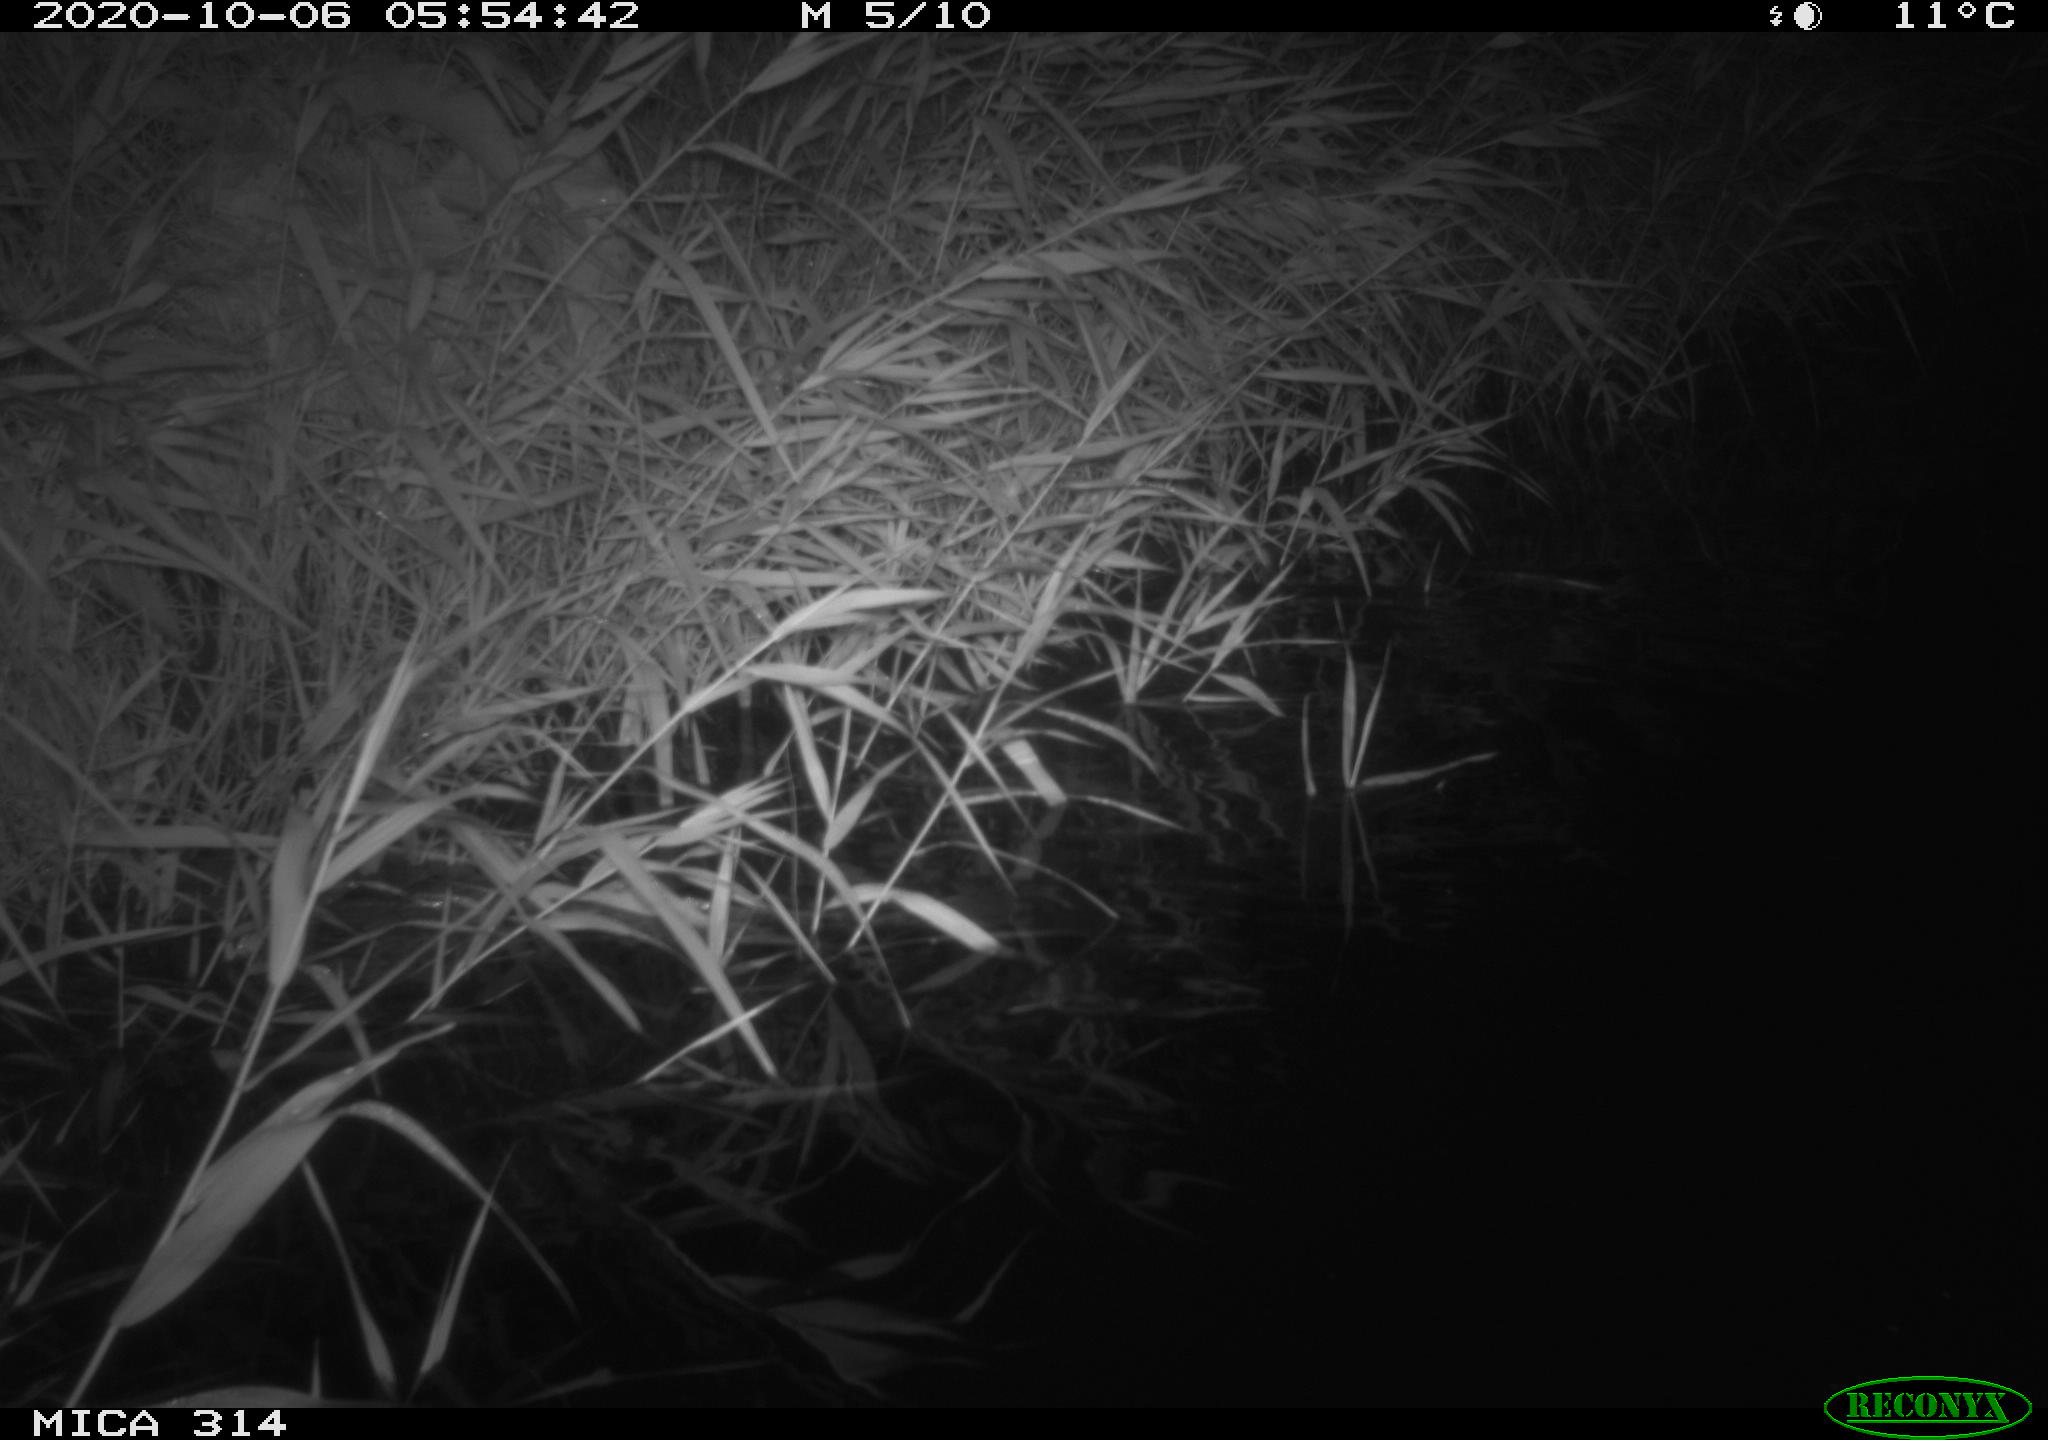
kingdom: Animalia
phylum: Chordata
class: Mammalia
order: Rodentia
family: Muridae
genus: Rattus
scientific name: Rattus norvegicus
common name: Brown rat
